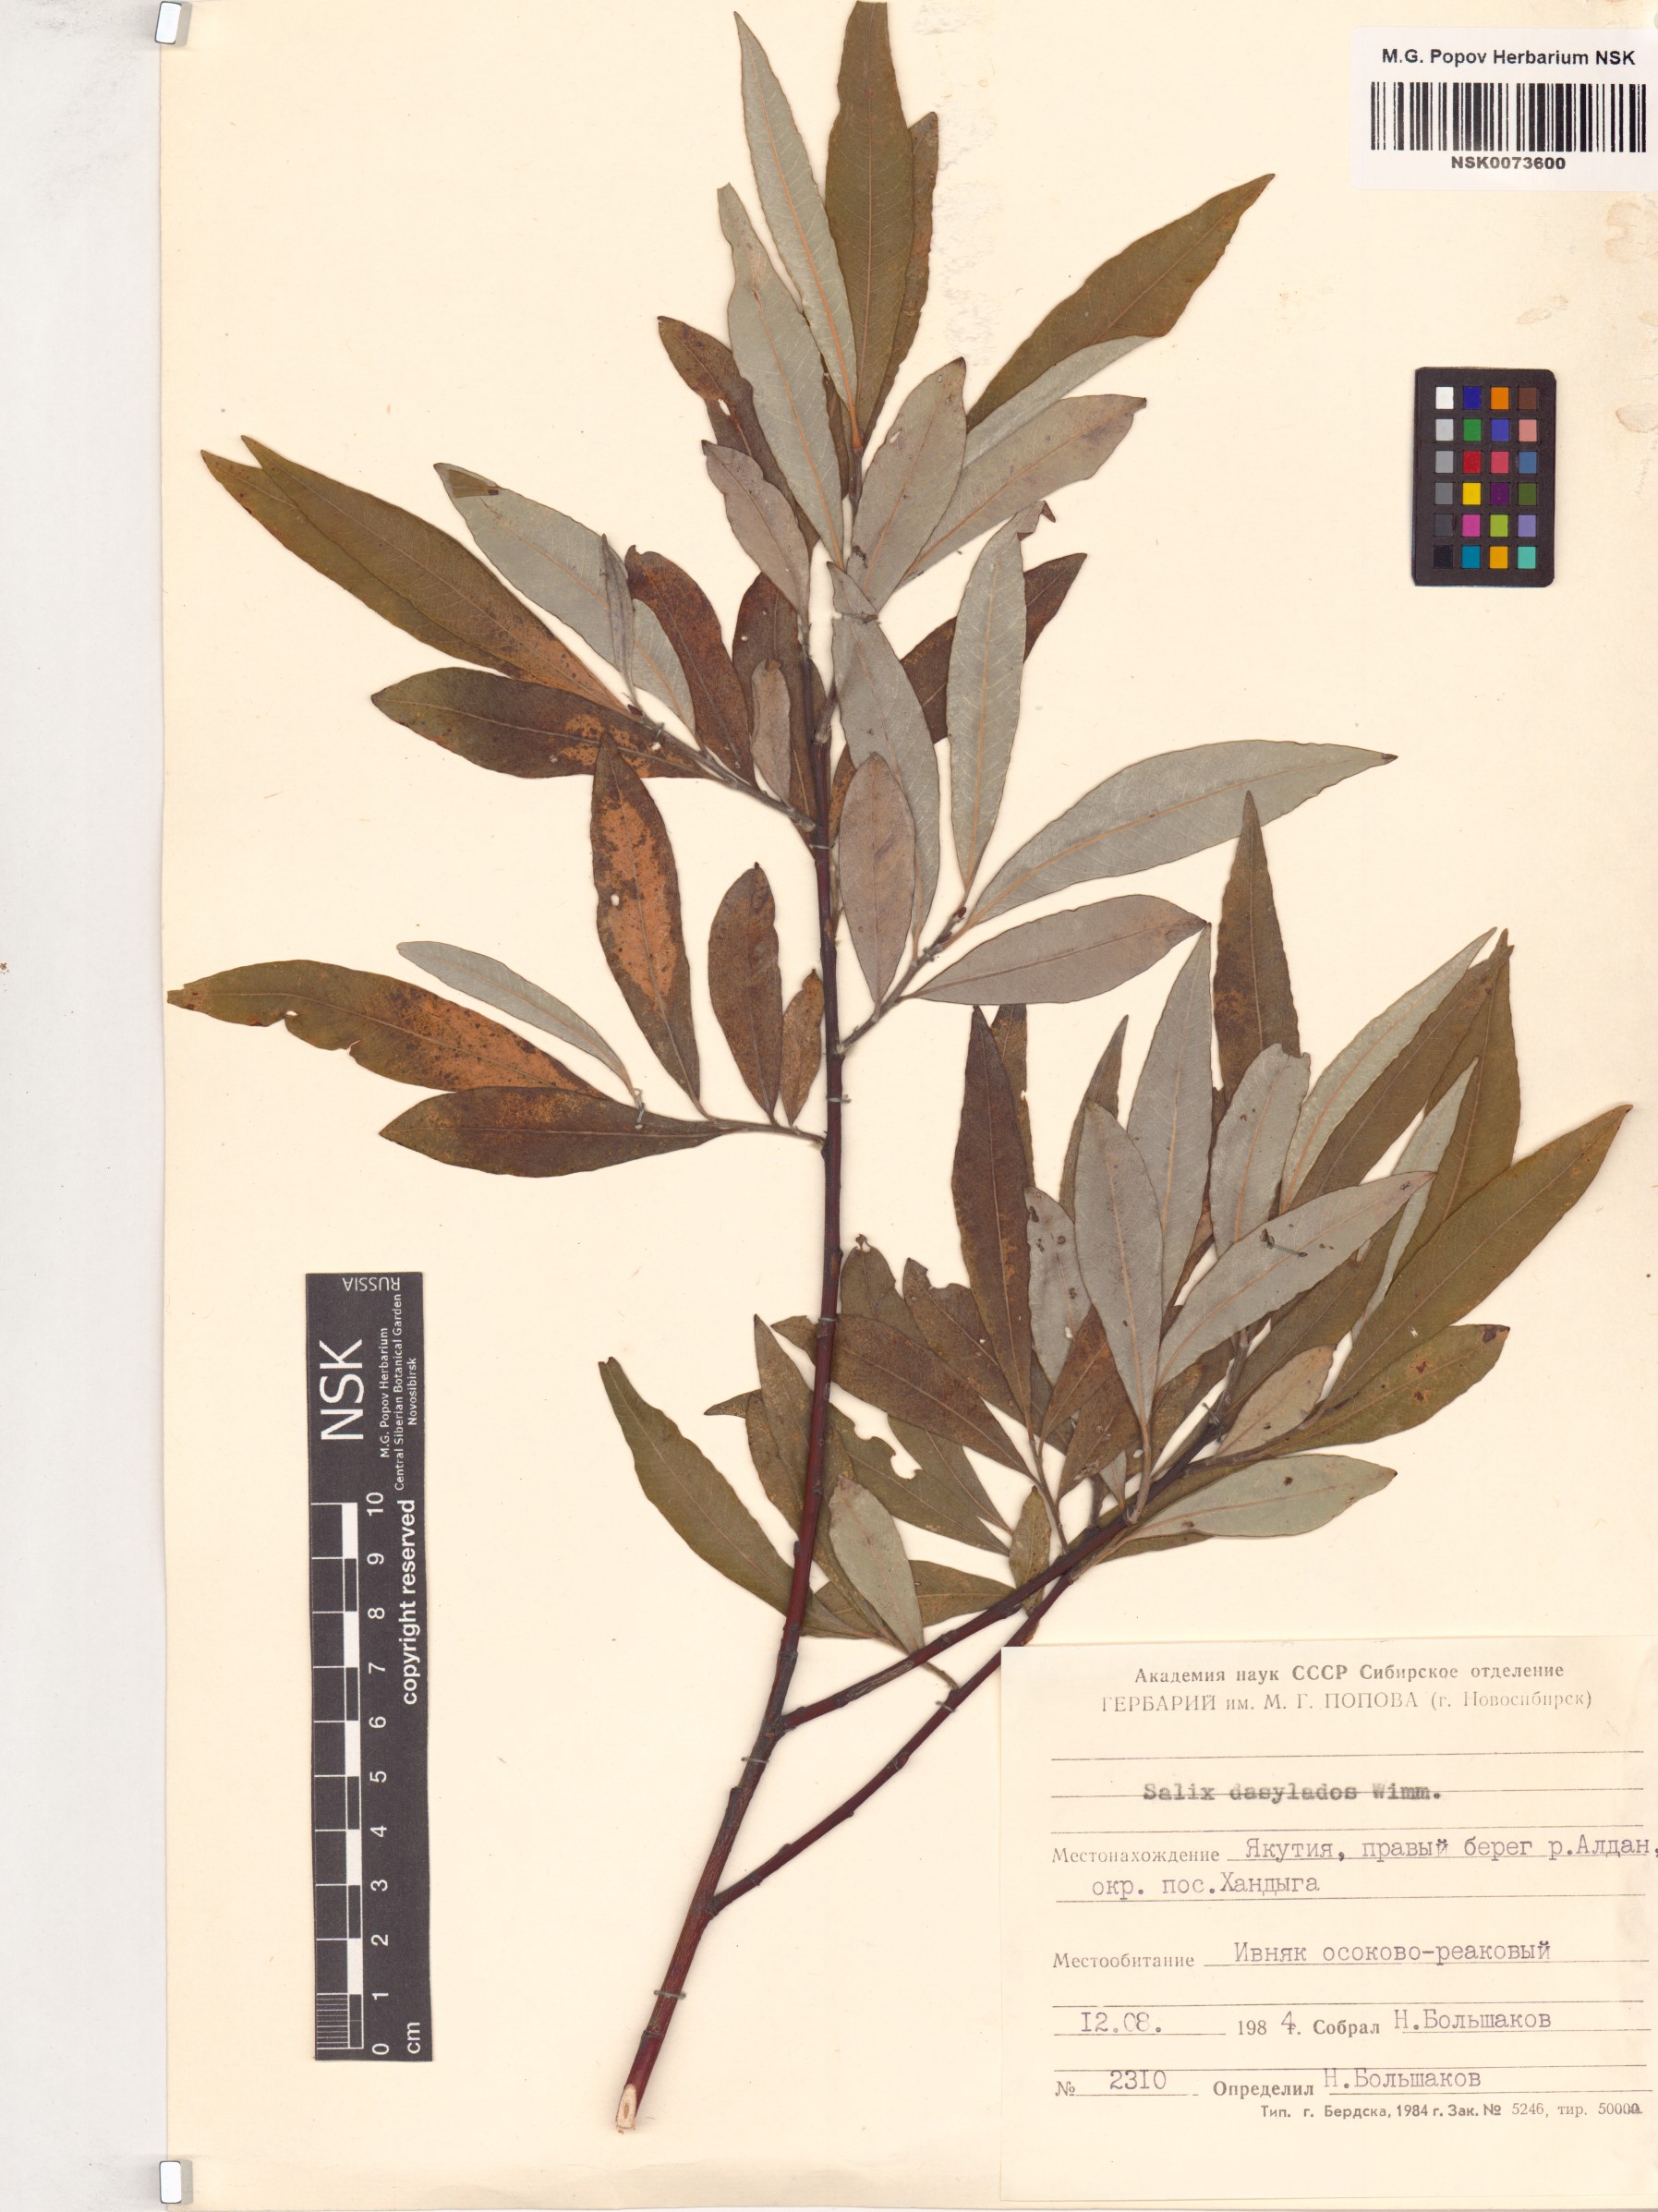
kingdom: Plantae
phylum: Tracheophyta
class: Magnoliopsida
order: Malpighiales
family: Salicaceae
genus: Salix
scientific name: Salix gmelinii
